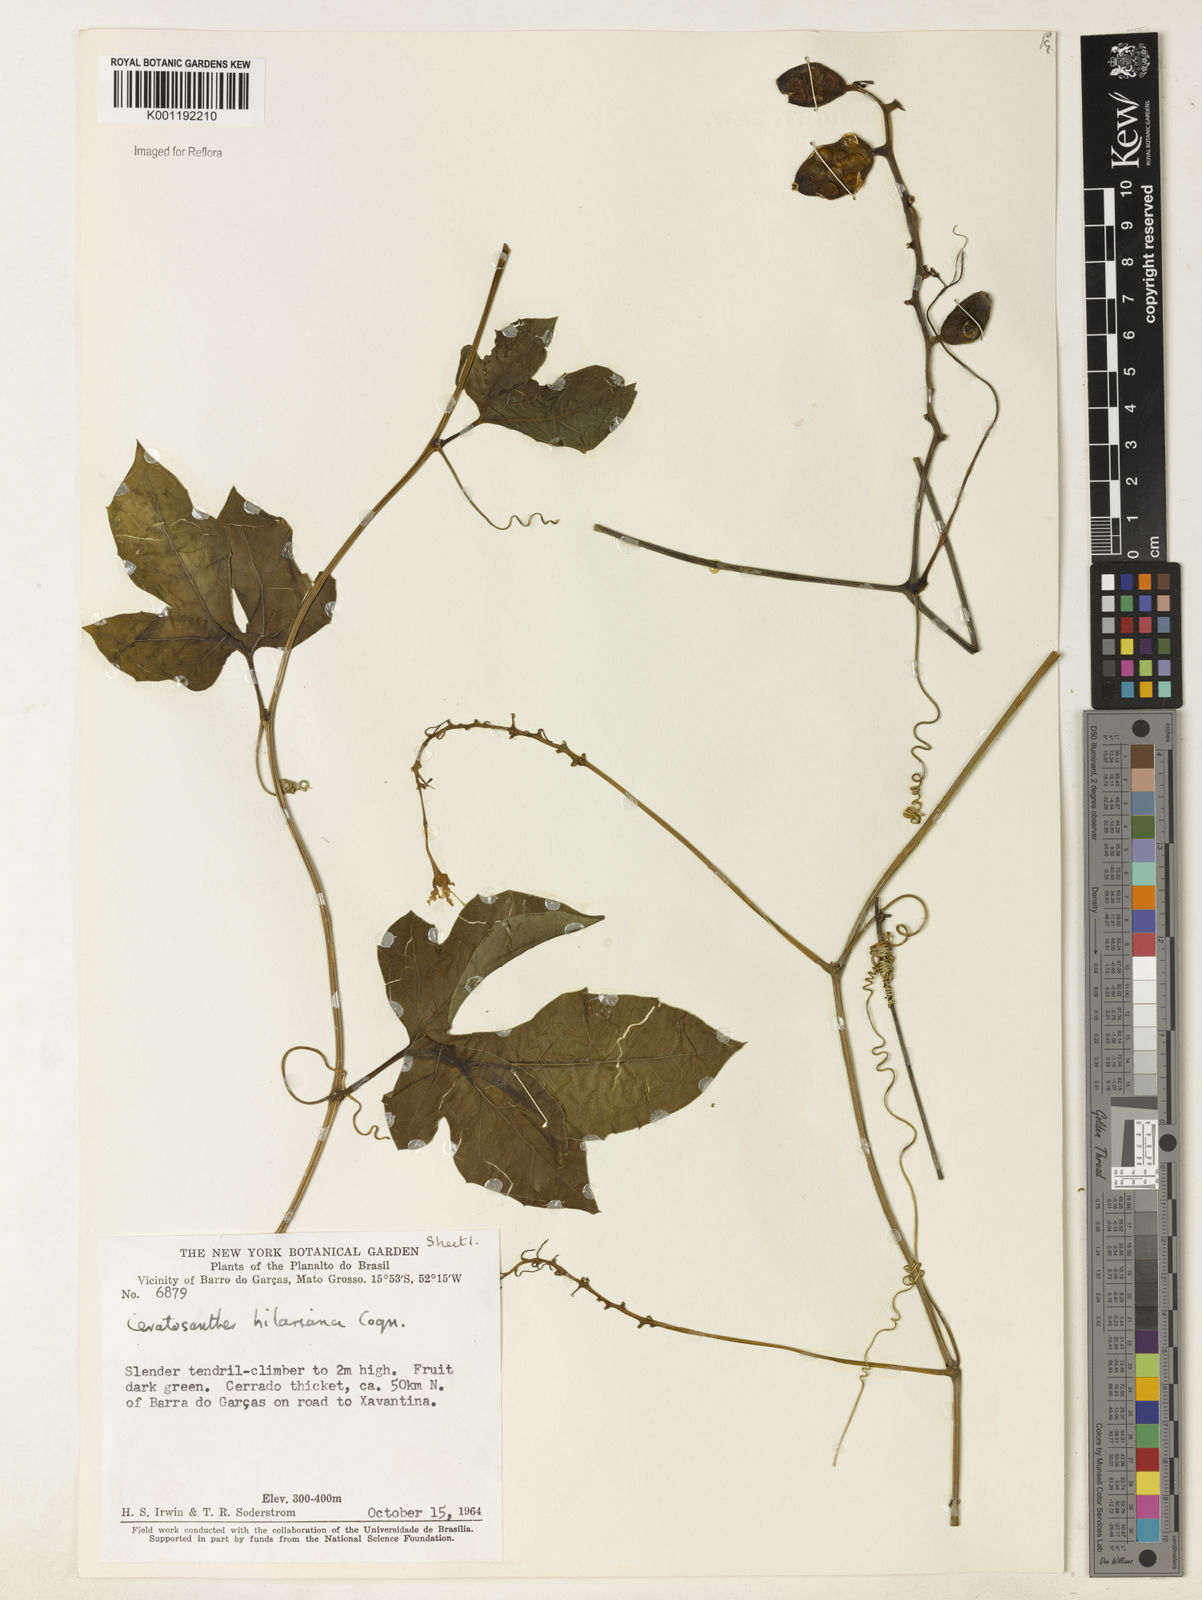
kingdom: Plantae
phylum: Tracheophyta
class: Magnoliopsida
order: Cucurbitales
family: Cucurbitaceae
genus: Ceratosanthes
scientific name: Ceratosanthes hilariana
